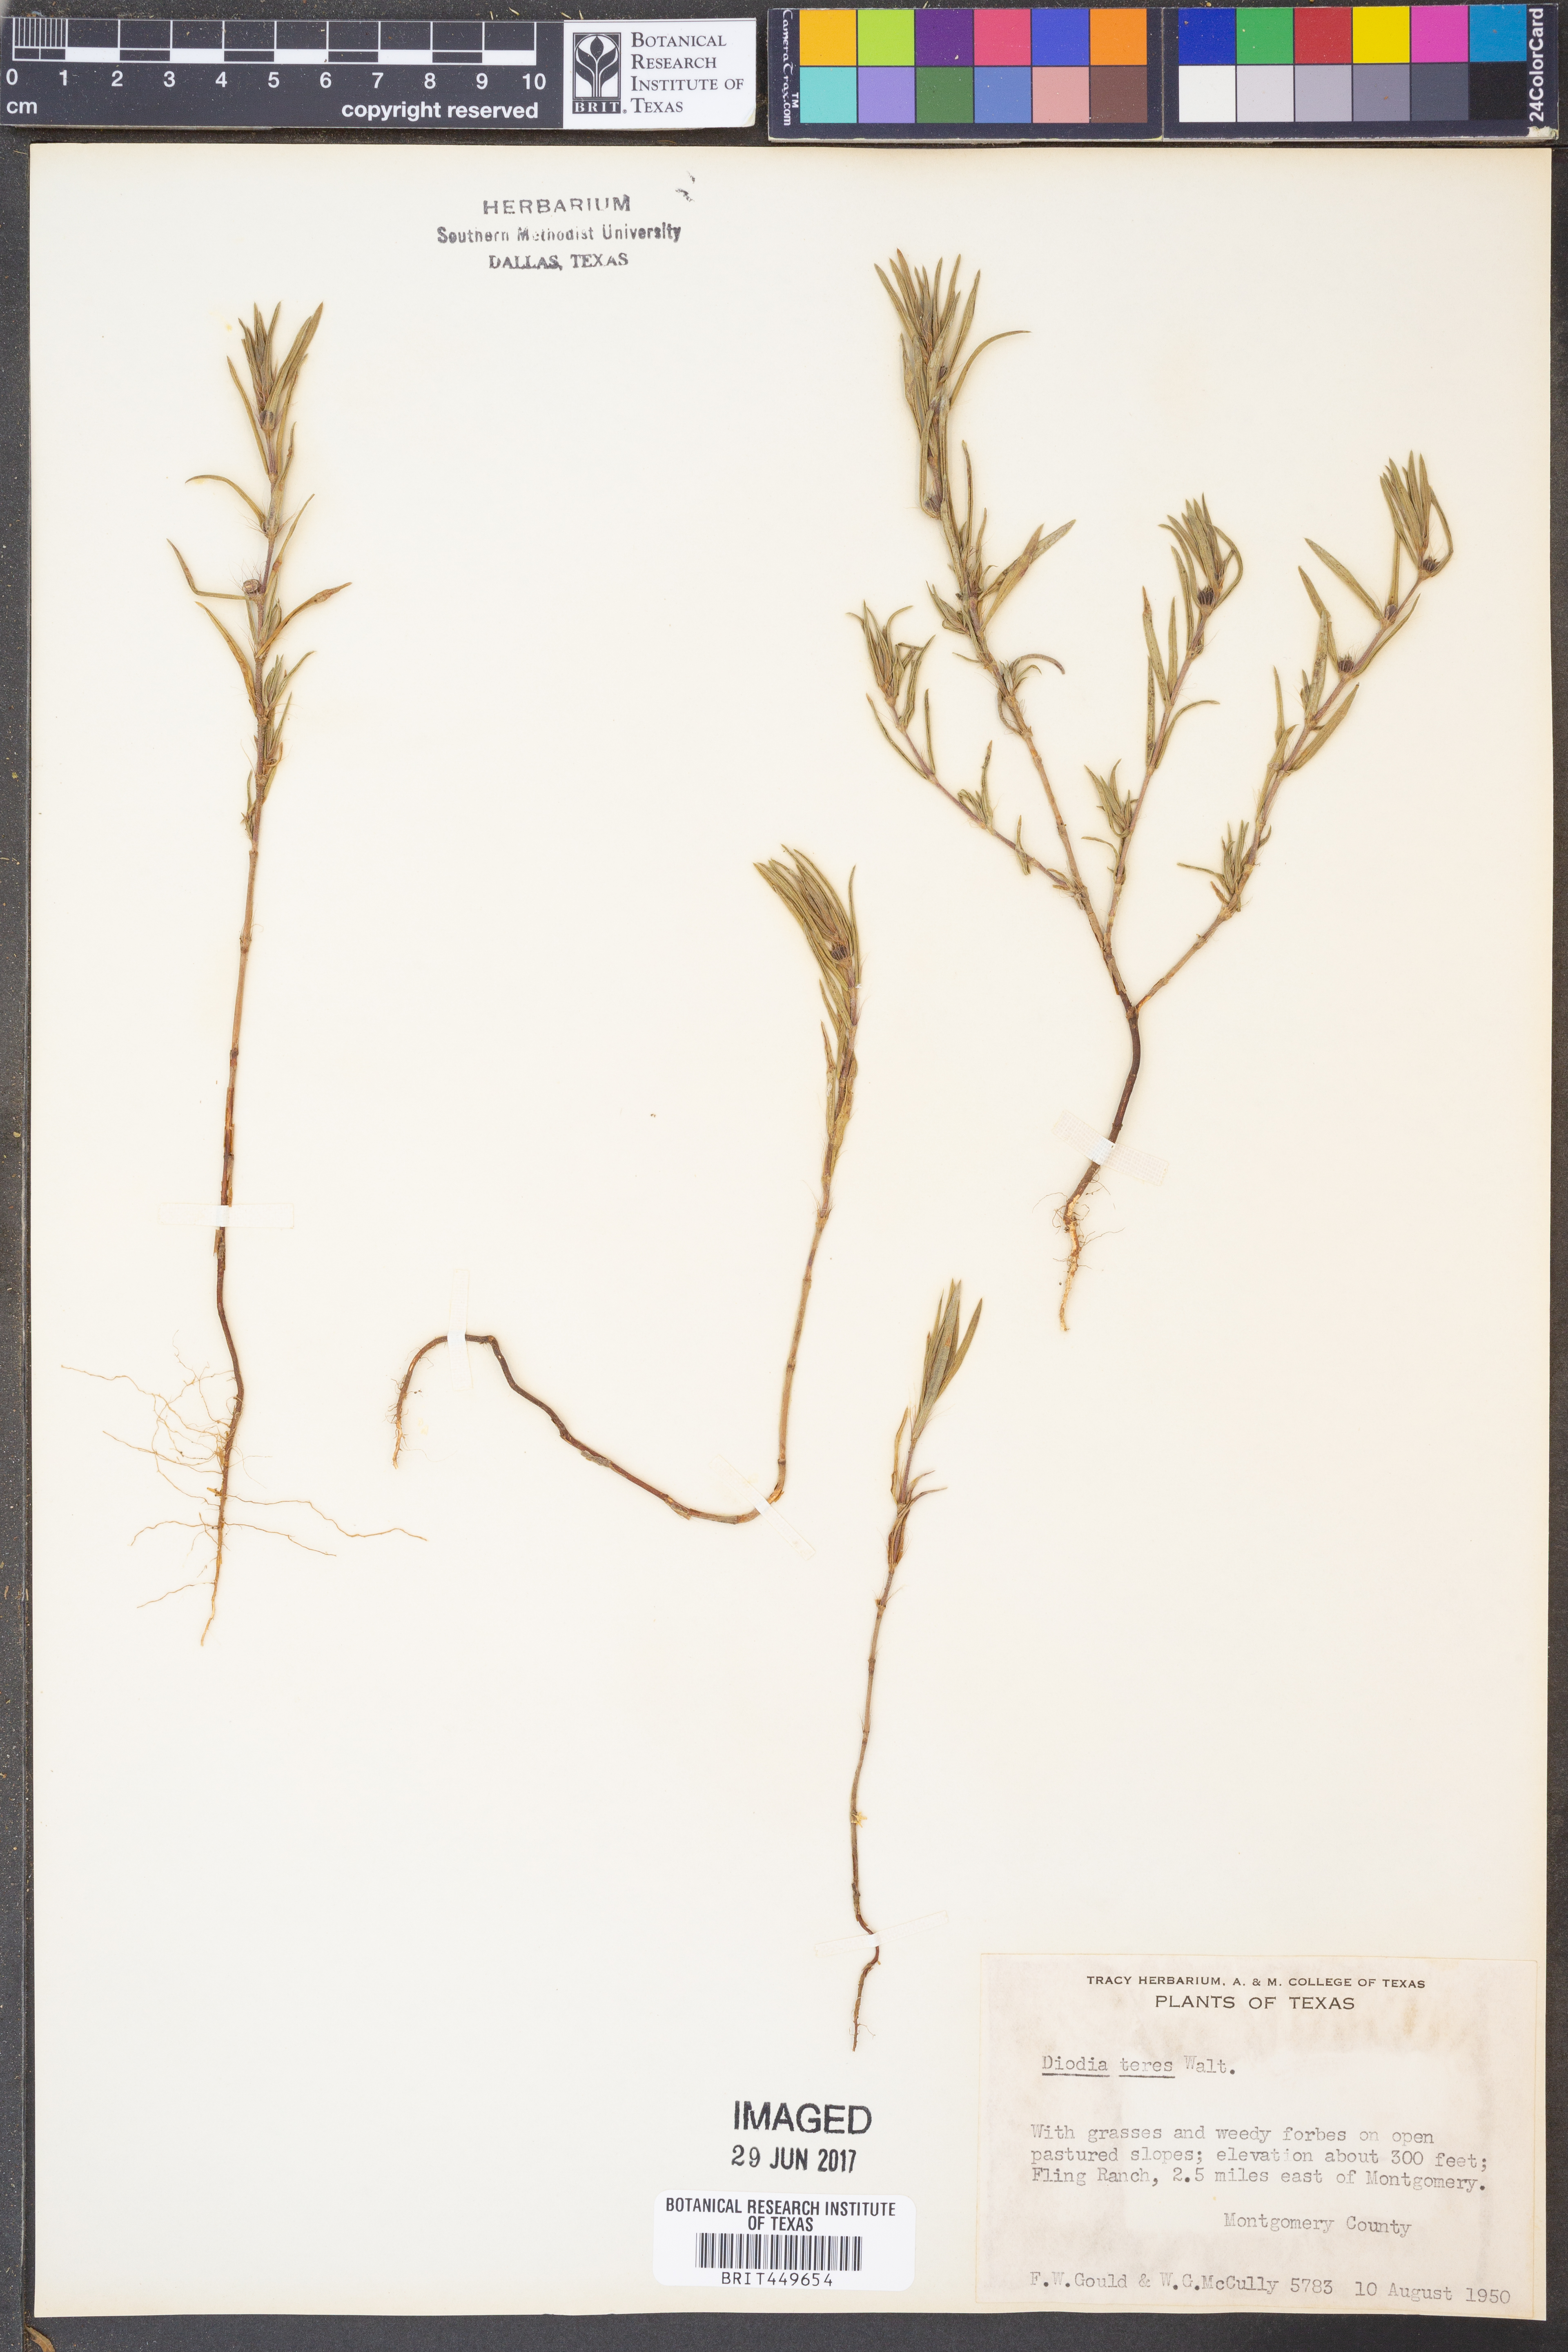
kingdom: Plantae
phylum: Tracheophyta
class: Magnoliopsida
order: Gentianales
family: Rubiaceae
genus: Hexasepalum
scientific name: Hexasepalum teres
